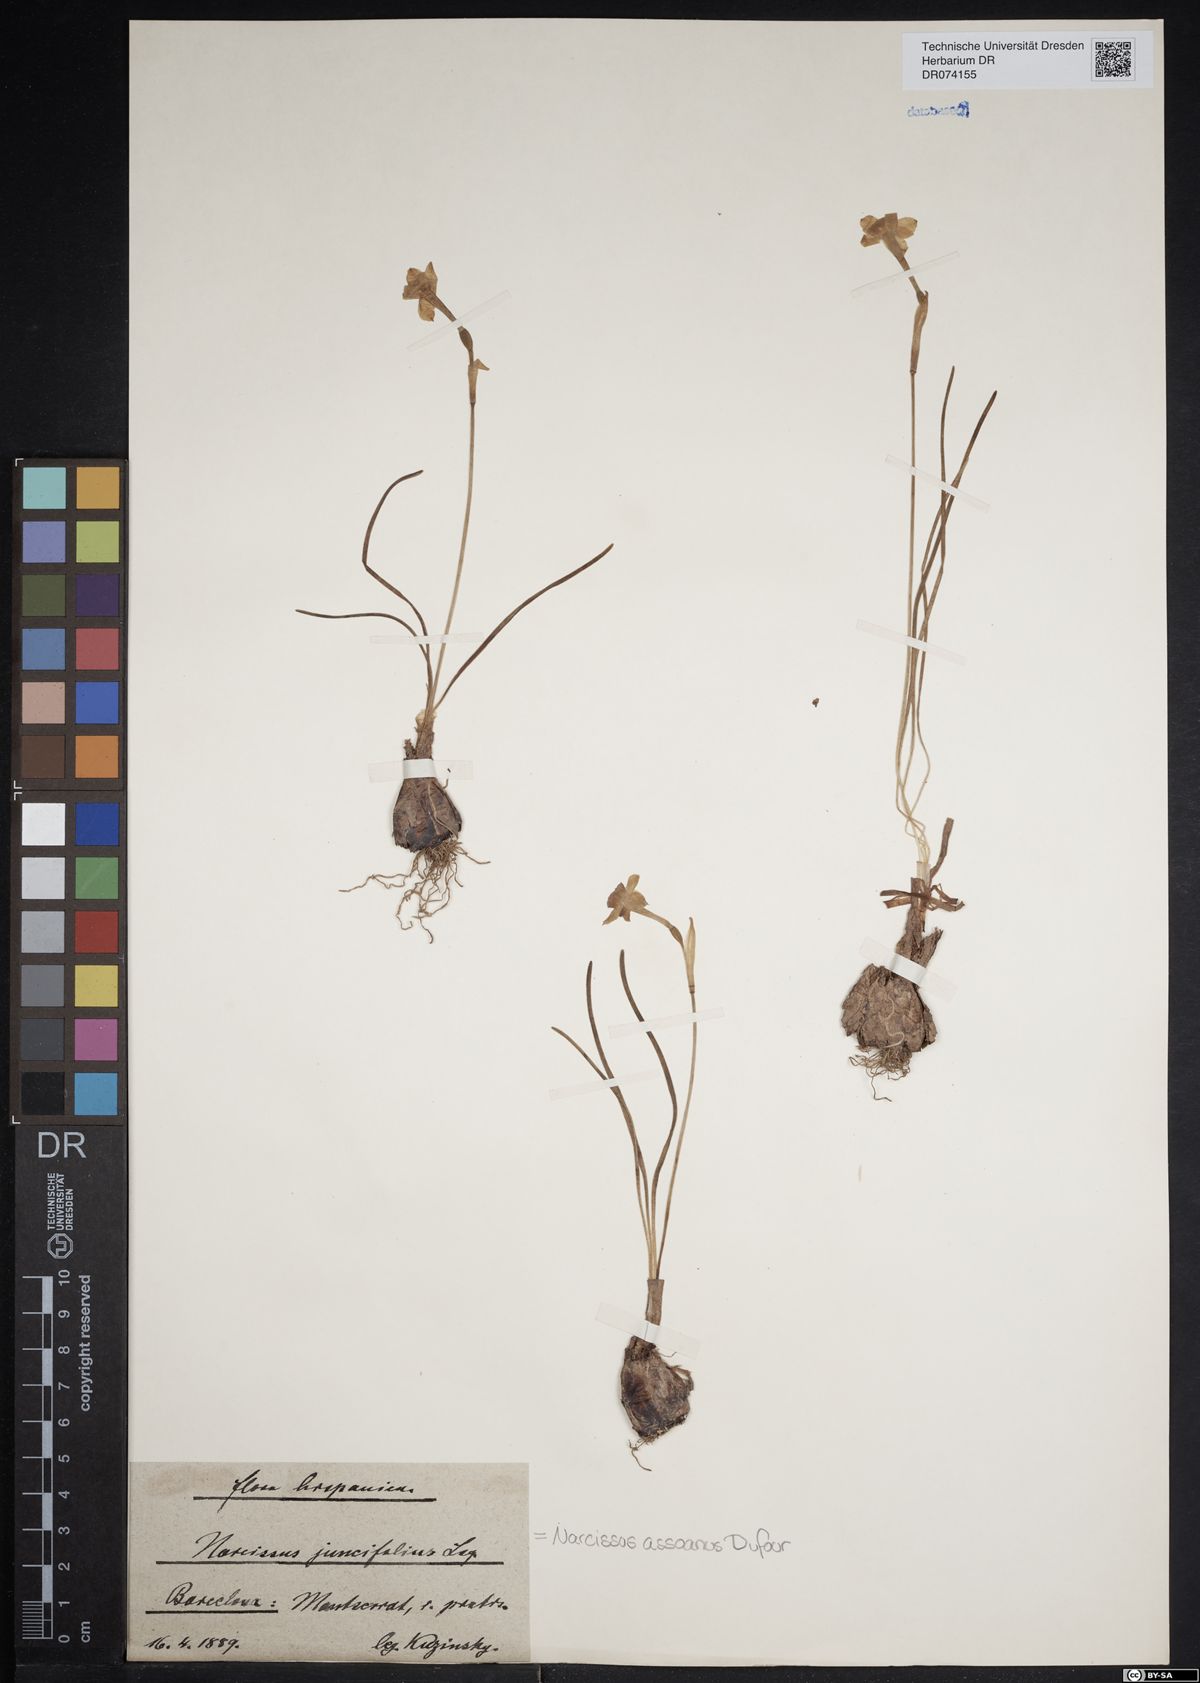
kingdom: Plantae
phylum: Tracheophyta
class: Liliopsida
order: Asparagales
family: Amaryllidaceae
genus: Narcissus
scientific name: Narcissus assoanus
